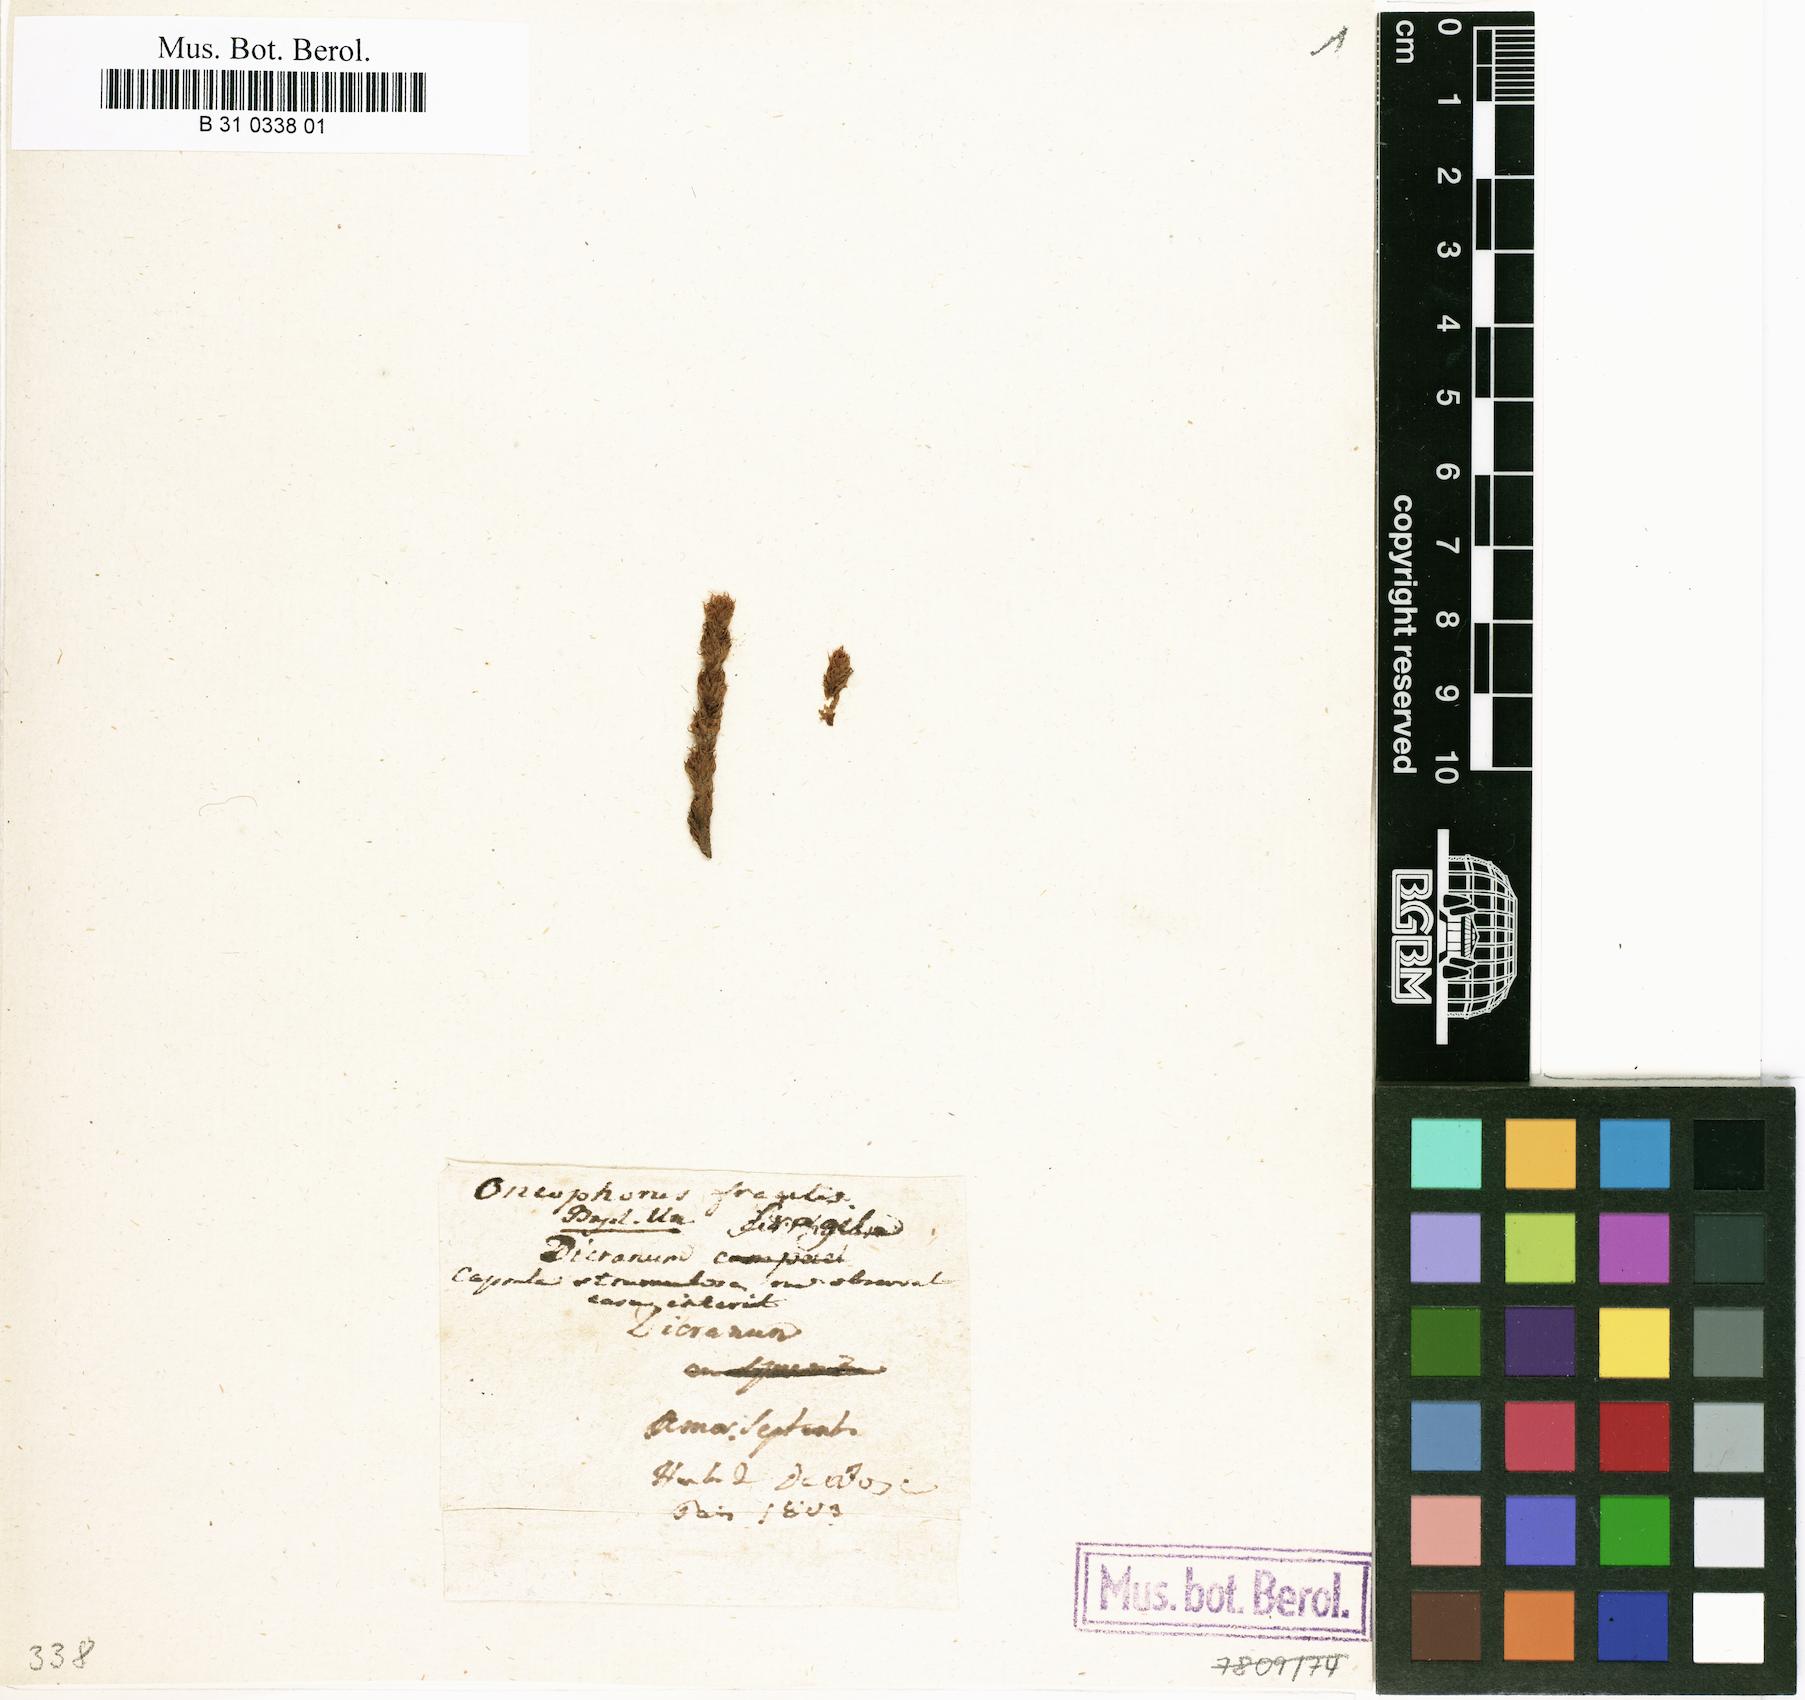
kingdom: Plantae
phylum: Bryophyta
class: Bryopsida
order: Dicranales
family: Dicranaceae
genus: Dicranum
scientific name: Dicranum spurium
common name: Spurred broom moss
